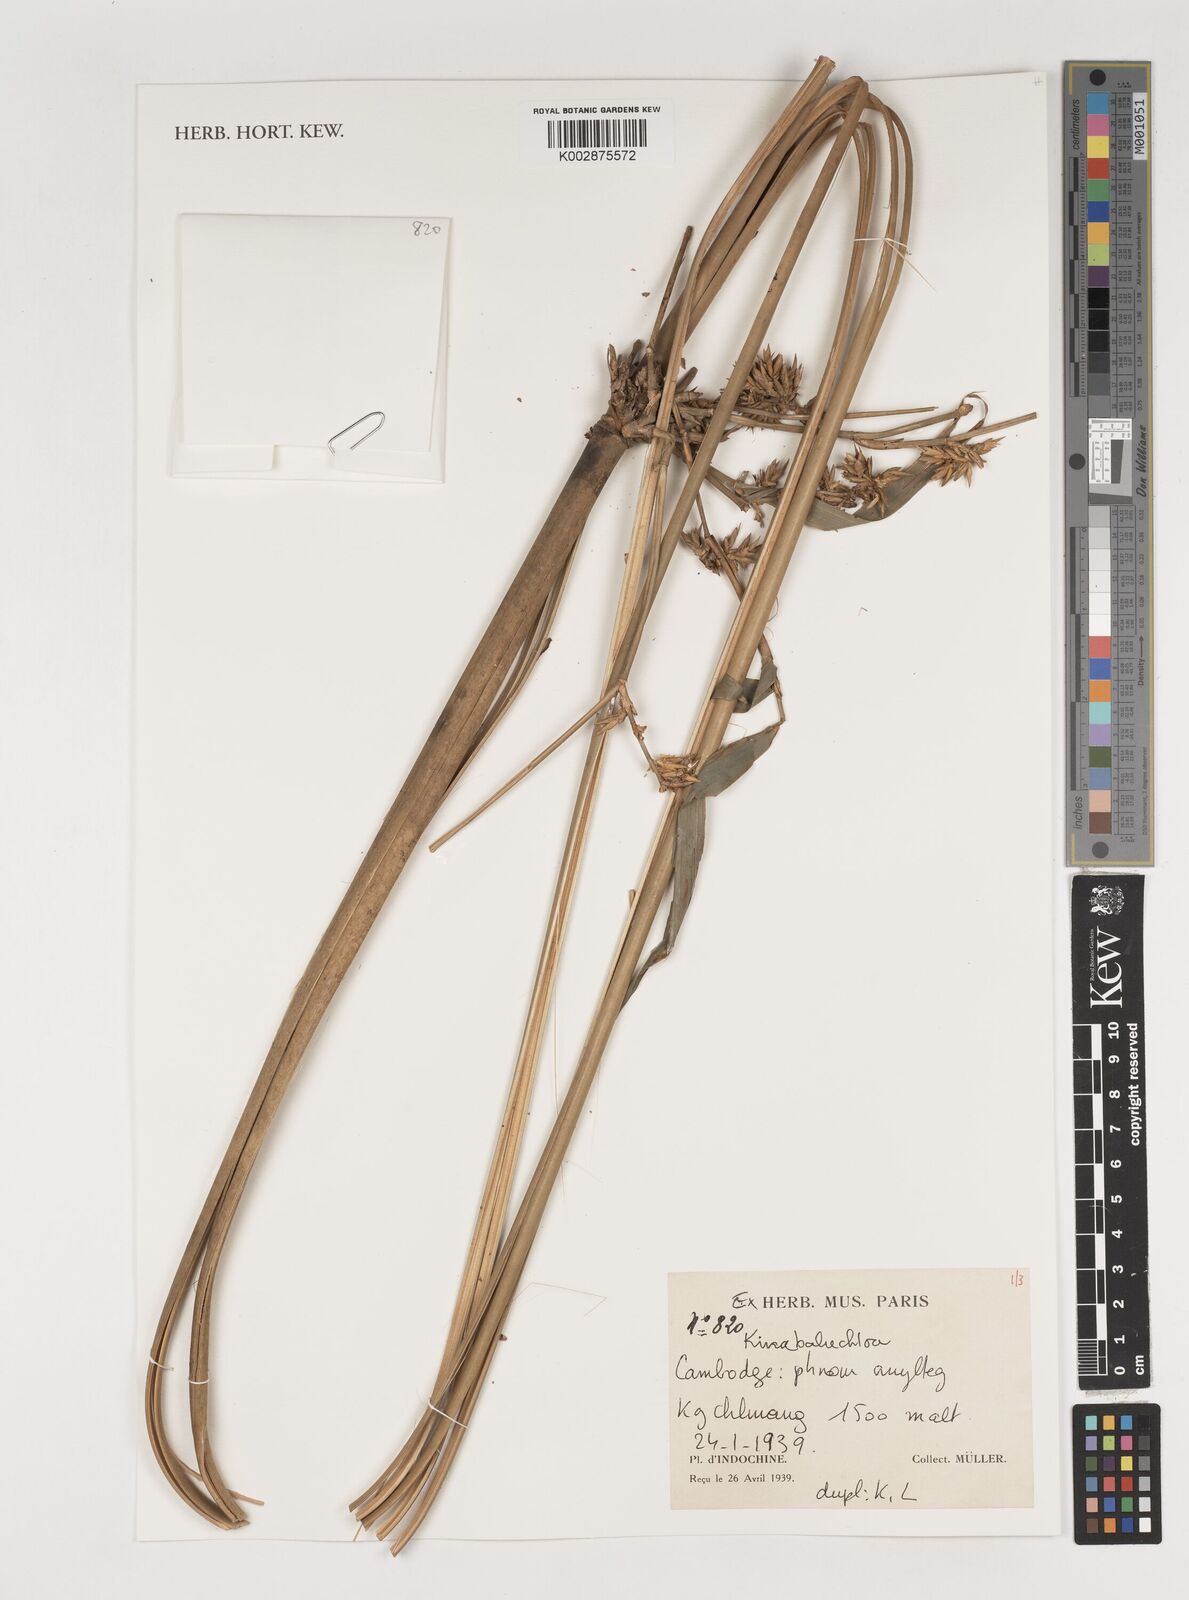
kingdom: Plantae
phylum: Tracheophyta
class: Liliopsida
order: Poales
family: Poaceae
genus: Kinabaluchloa
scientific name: Kinabaluchloa
